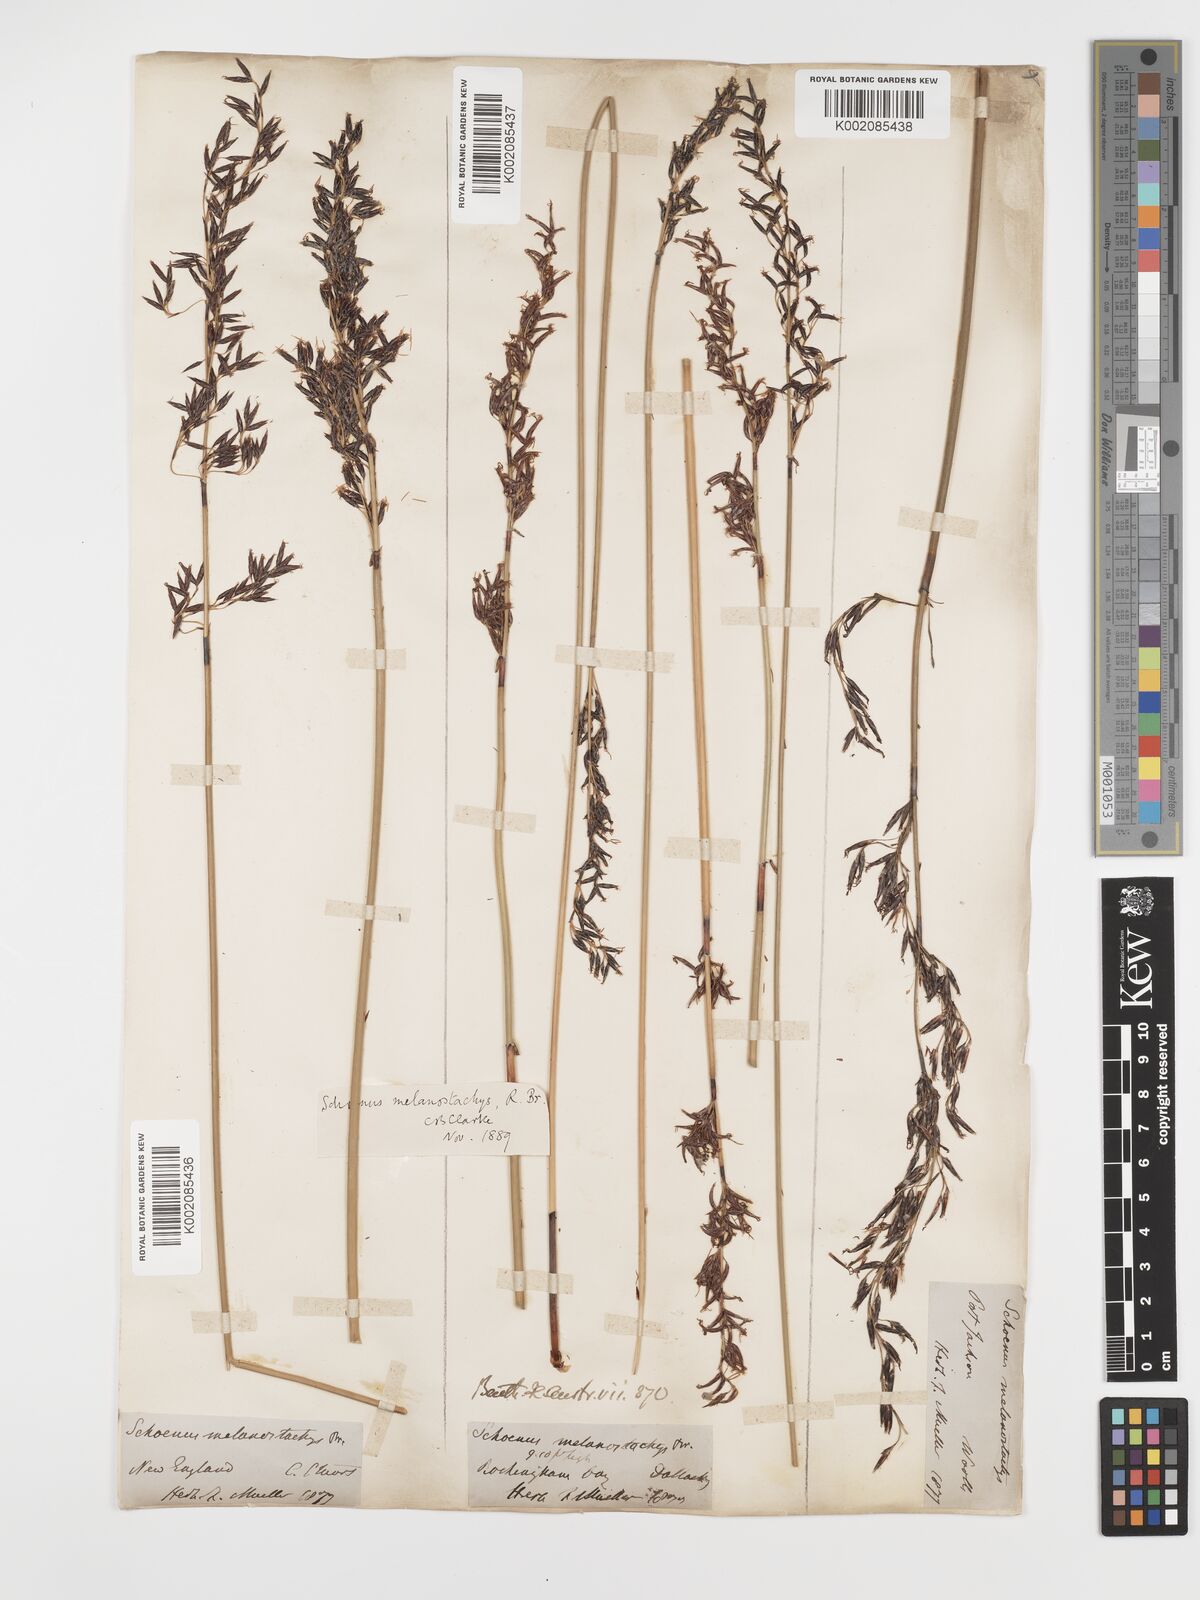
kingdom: Plantae
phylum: Tracheophyta
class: Liliopsida
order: Poales
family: Cyperaceae
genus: Schoenus
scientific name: Schoenus melanostachys
